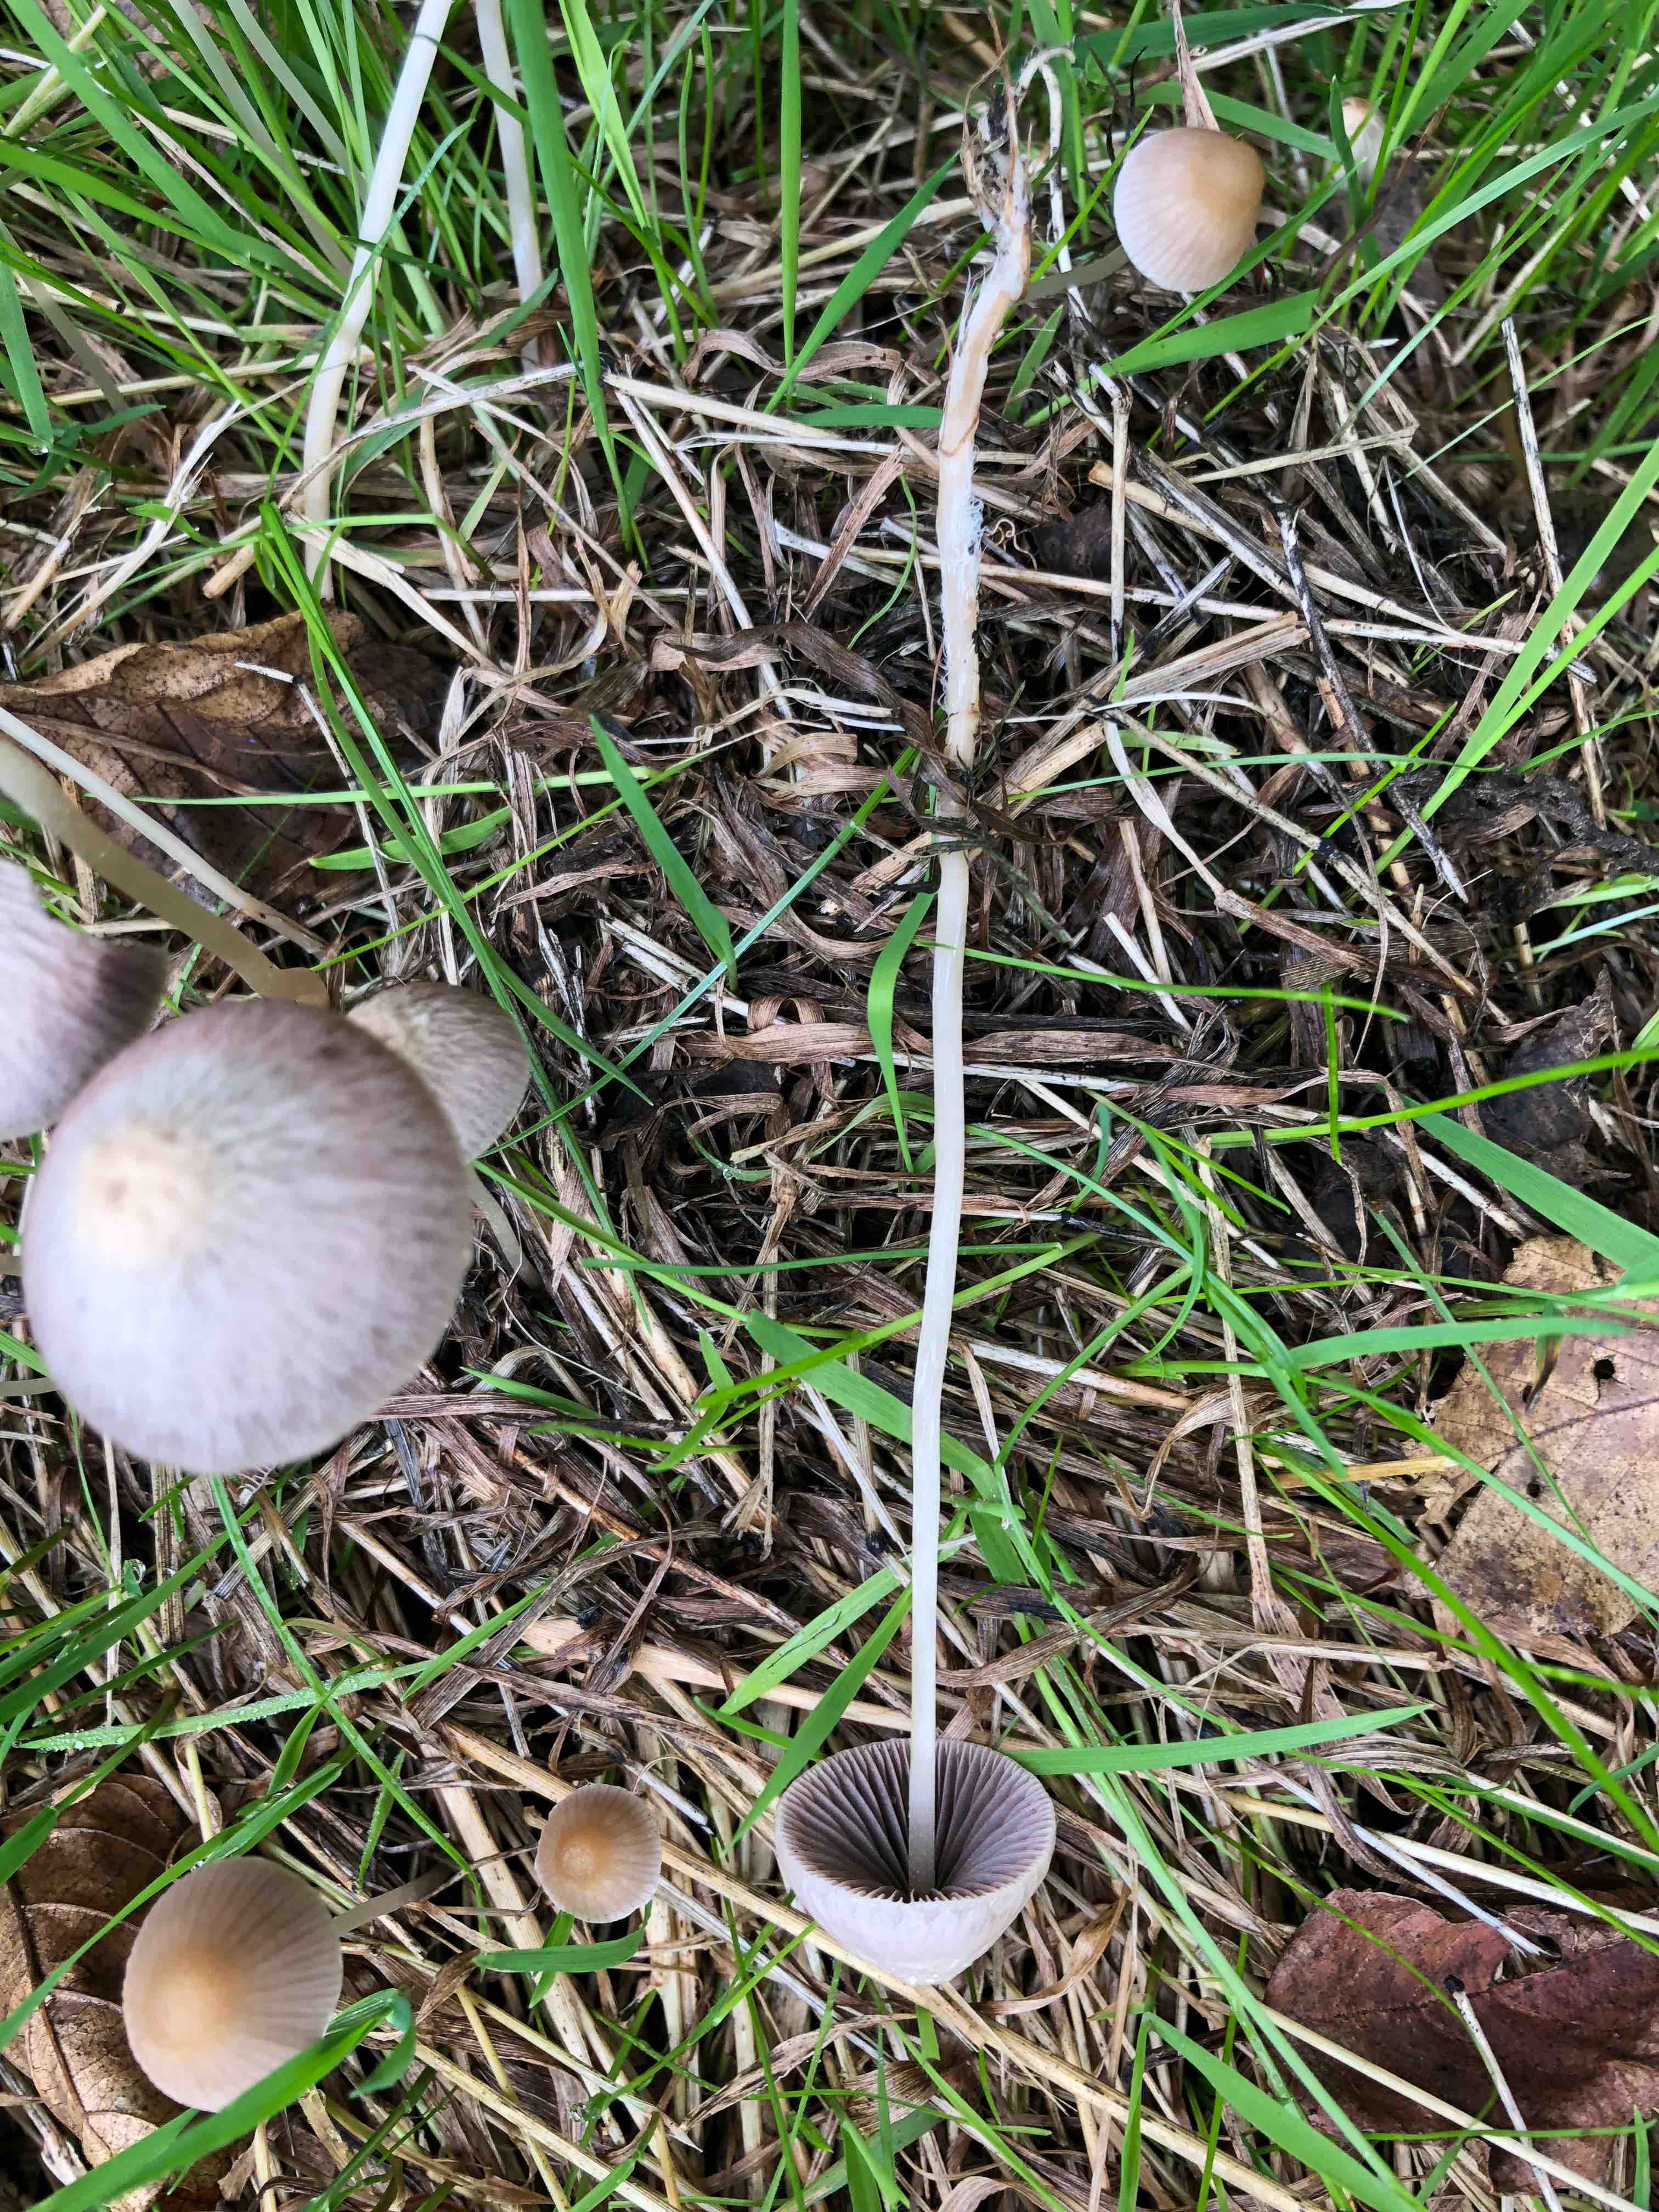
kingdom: Fungi
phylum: Basidiomycota
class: Agaricomycetes
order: Agaricales
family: Psathyrellaceae
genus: Psathyrella
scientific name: Psathyrella
